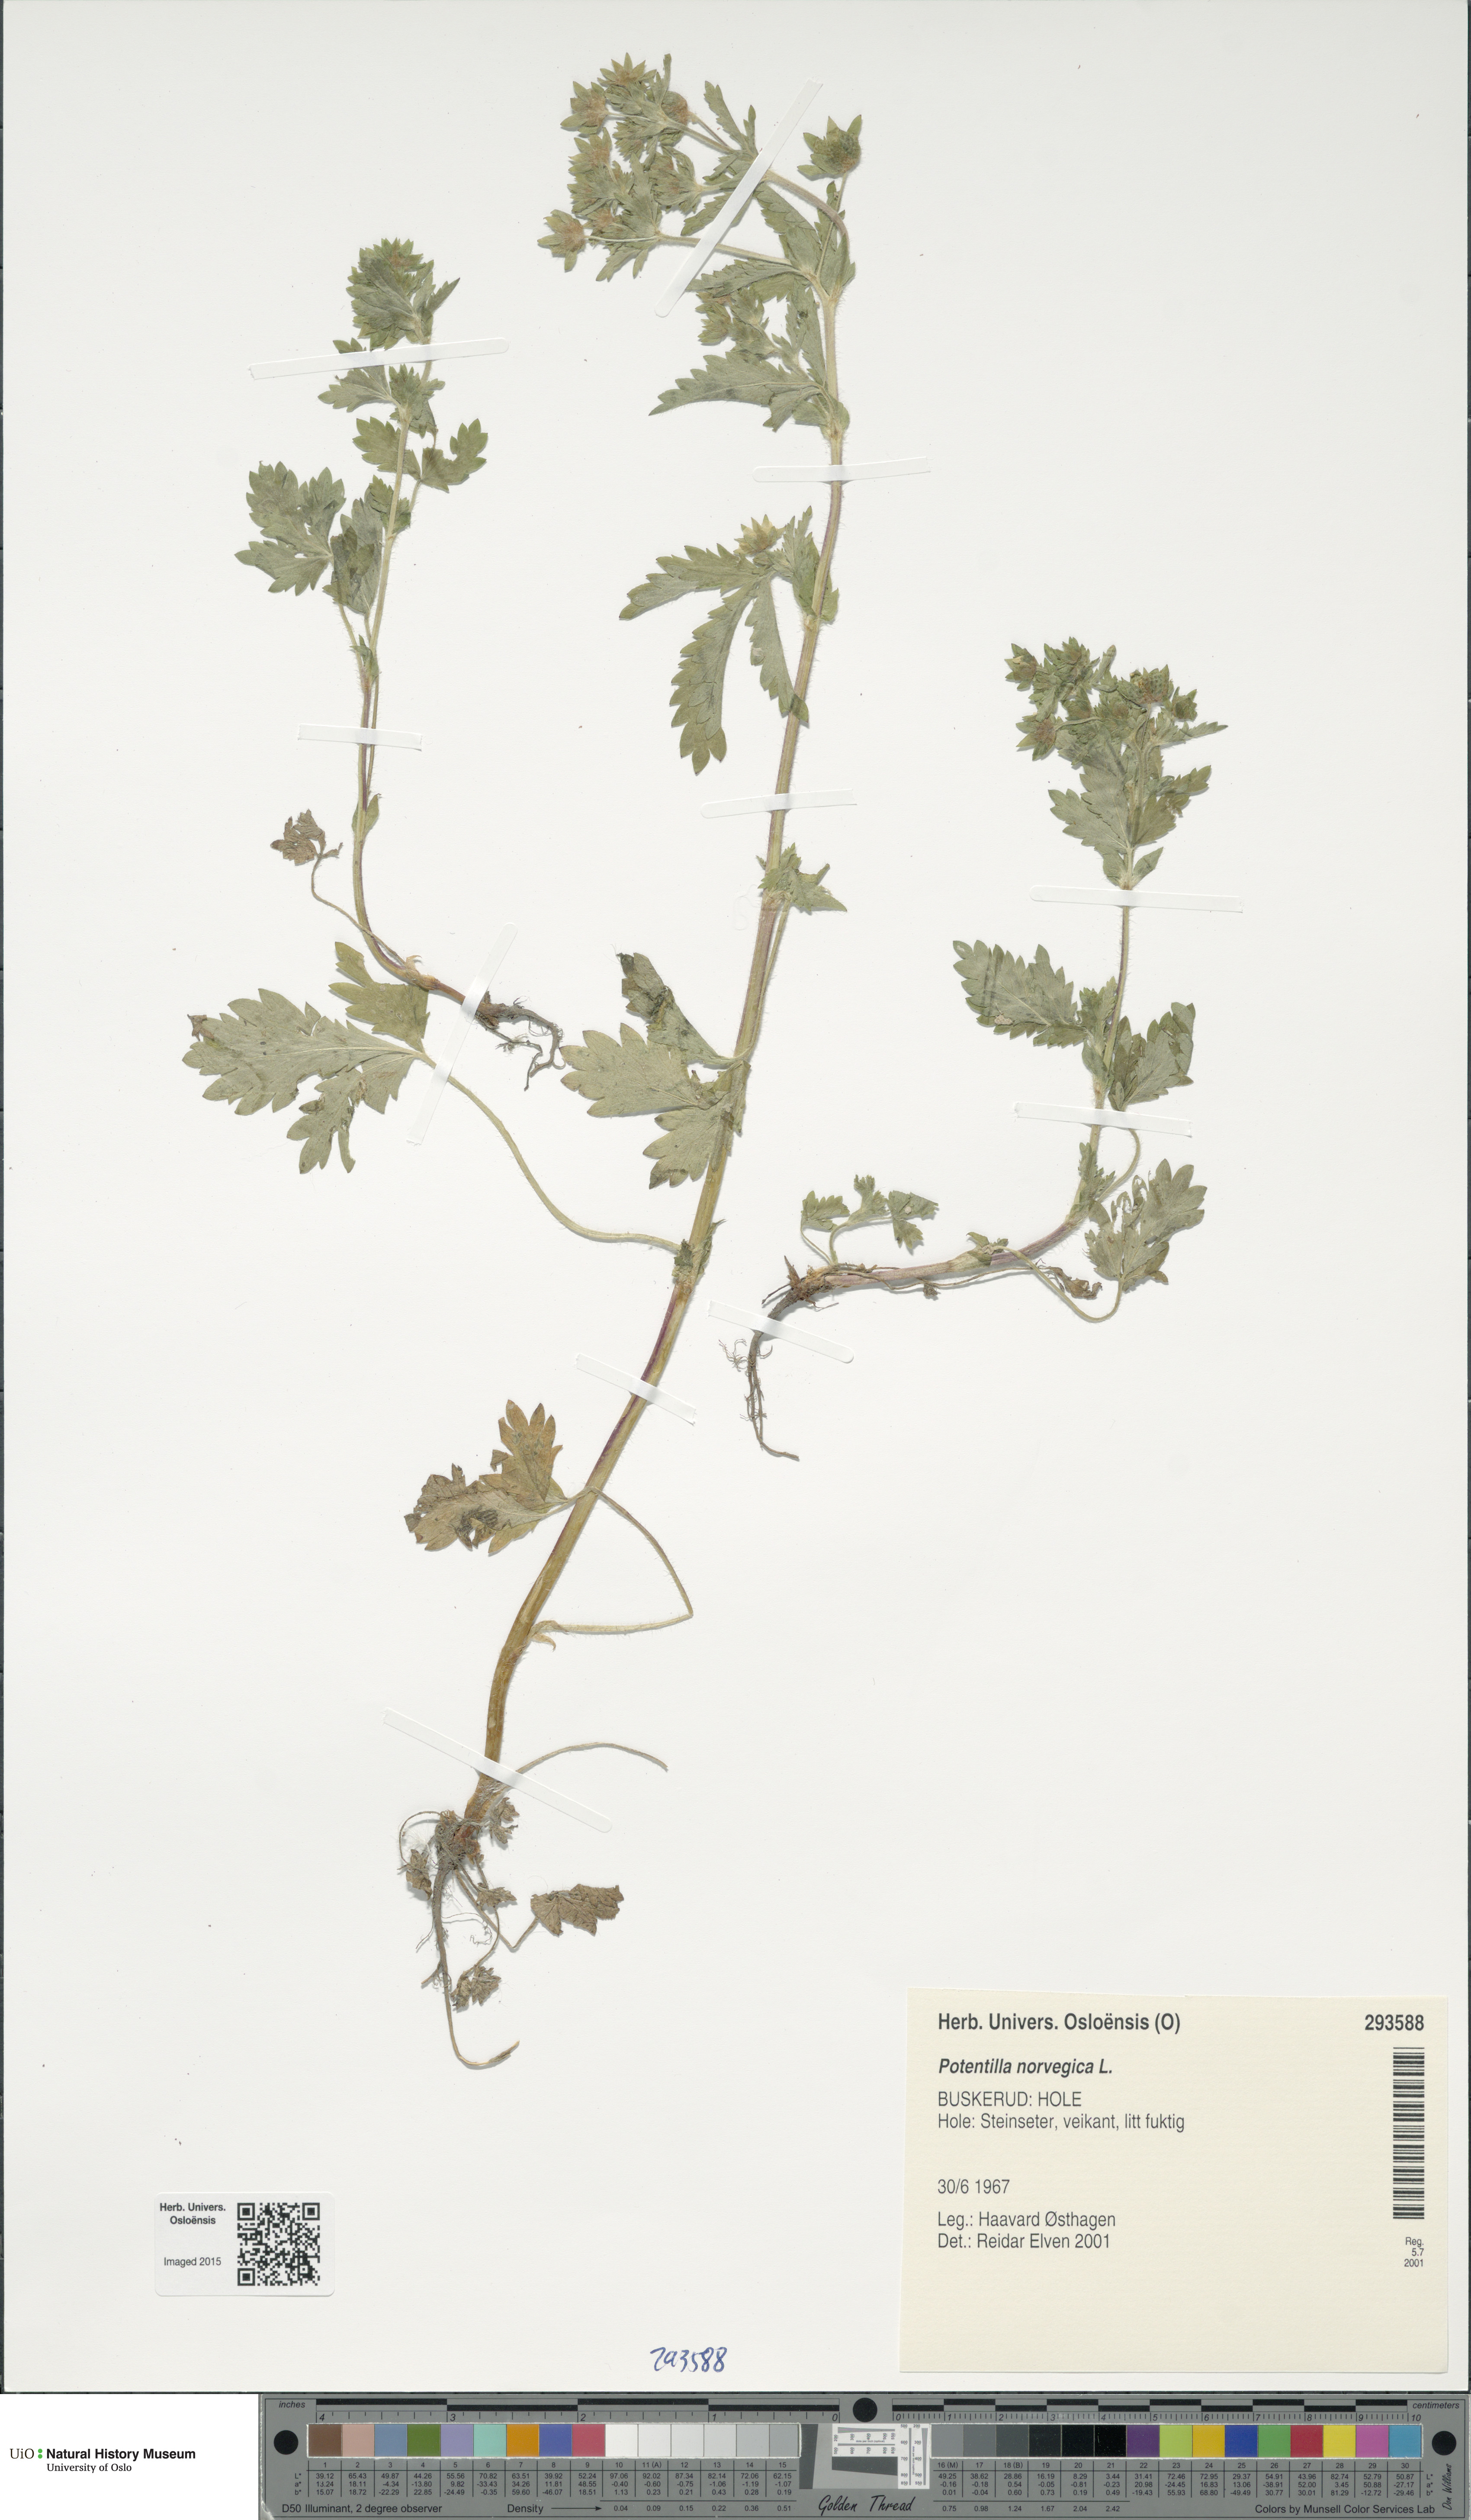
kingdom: Plantae
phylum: Tracheophyta
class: Magnoliopsida
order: Rosales
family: Rosaceae
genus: Potentilla
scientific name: Potentilla norvegica
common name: Ternate-leaved cinquefoil
